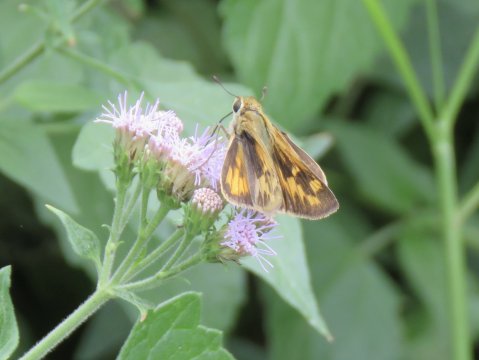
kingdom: Animalia
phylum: Arthropoda
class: Insecta
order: Lepidoptera
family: Hesperiidae
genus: Hylephila
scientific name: Hylephila phyleus
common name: Fiery Skipper
